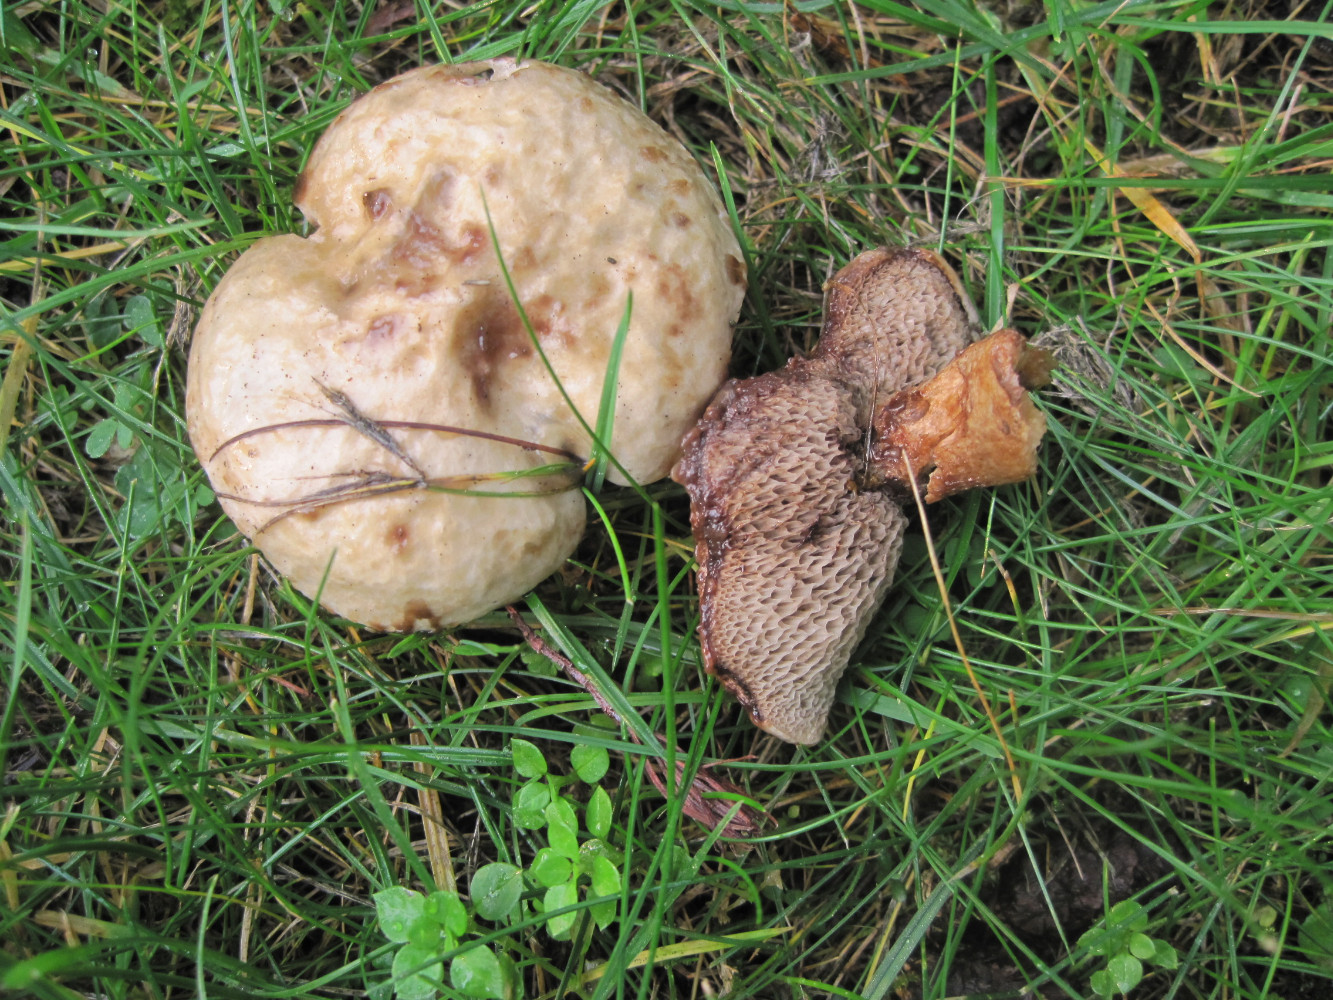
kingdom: Fungi
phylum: Basidiomycota
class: Agaricomycetes
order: Boletales
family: Suillaceae
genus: Suillus
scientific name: Suillus viscidus
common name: olivengrå slimrørhat
